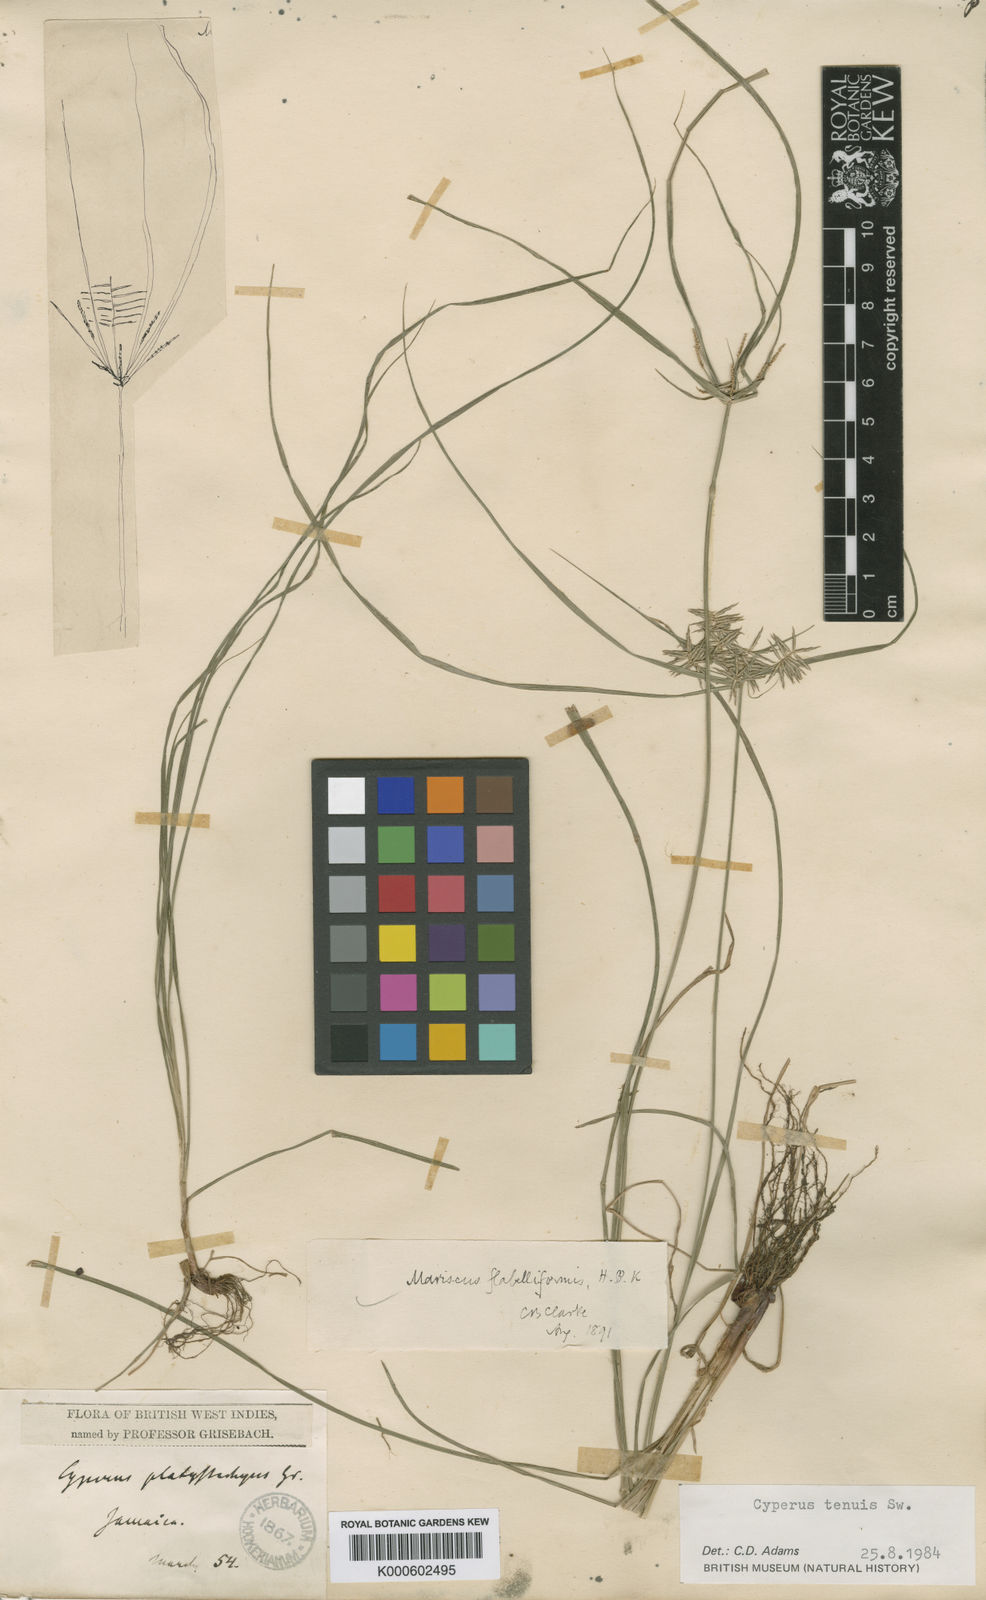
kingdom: Plantae
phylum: Tracheophyta
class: Liliopsida
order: Poales
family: Cyperaceae
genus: Cyperus
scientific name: Cyperus tenuis
